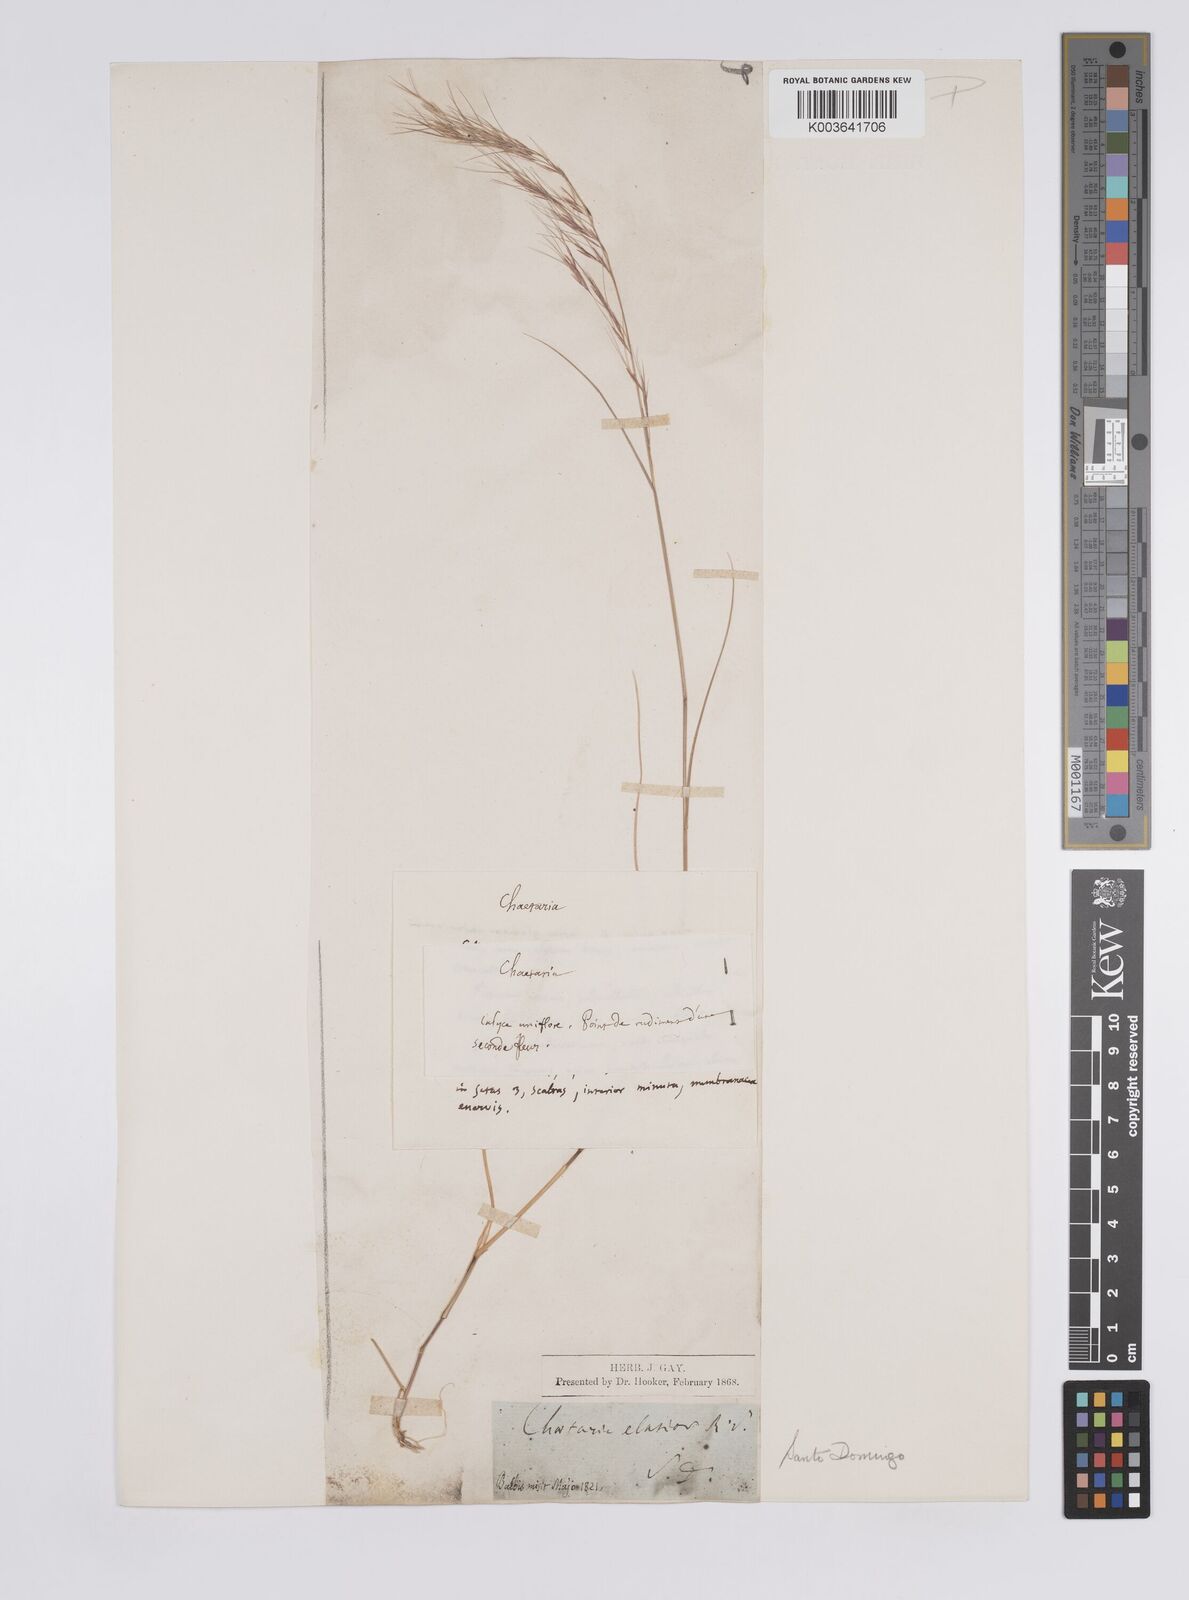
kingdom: Plantae
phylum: Tracheophyta
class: Liliopsida
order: Poales
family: Poaceae
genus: Aristida
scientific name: Aristida
